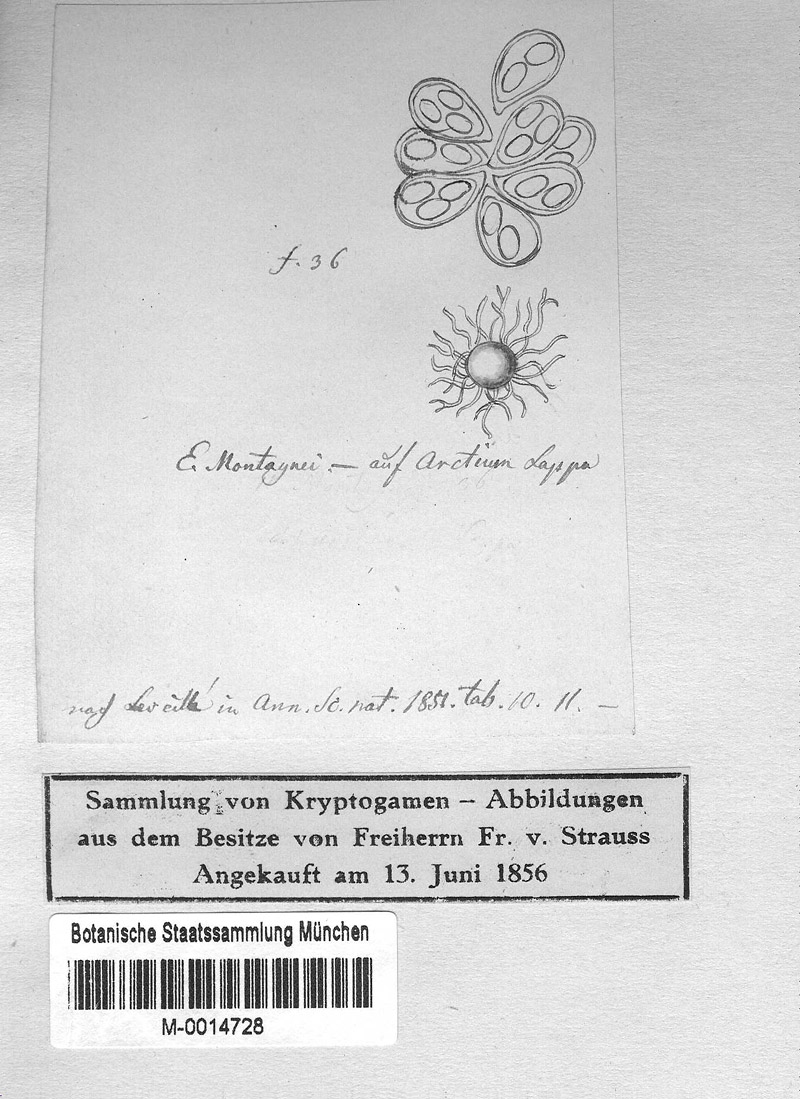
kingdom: Fungi
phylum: Ascomycota
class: Leotiomycetes
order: Helotiales
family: Erysiphaceae
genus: Golovinomyces
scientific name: Golovinomyces depressus
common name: Burdock mildew
